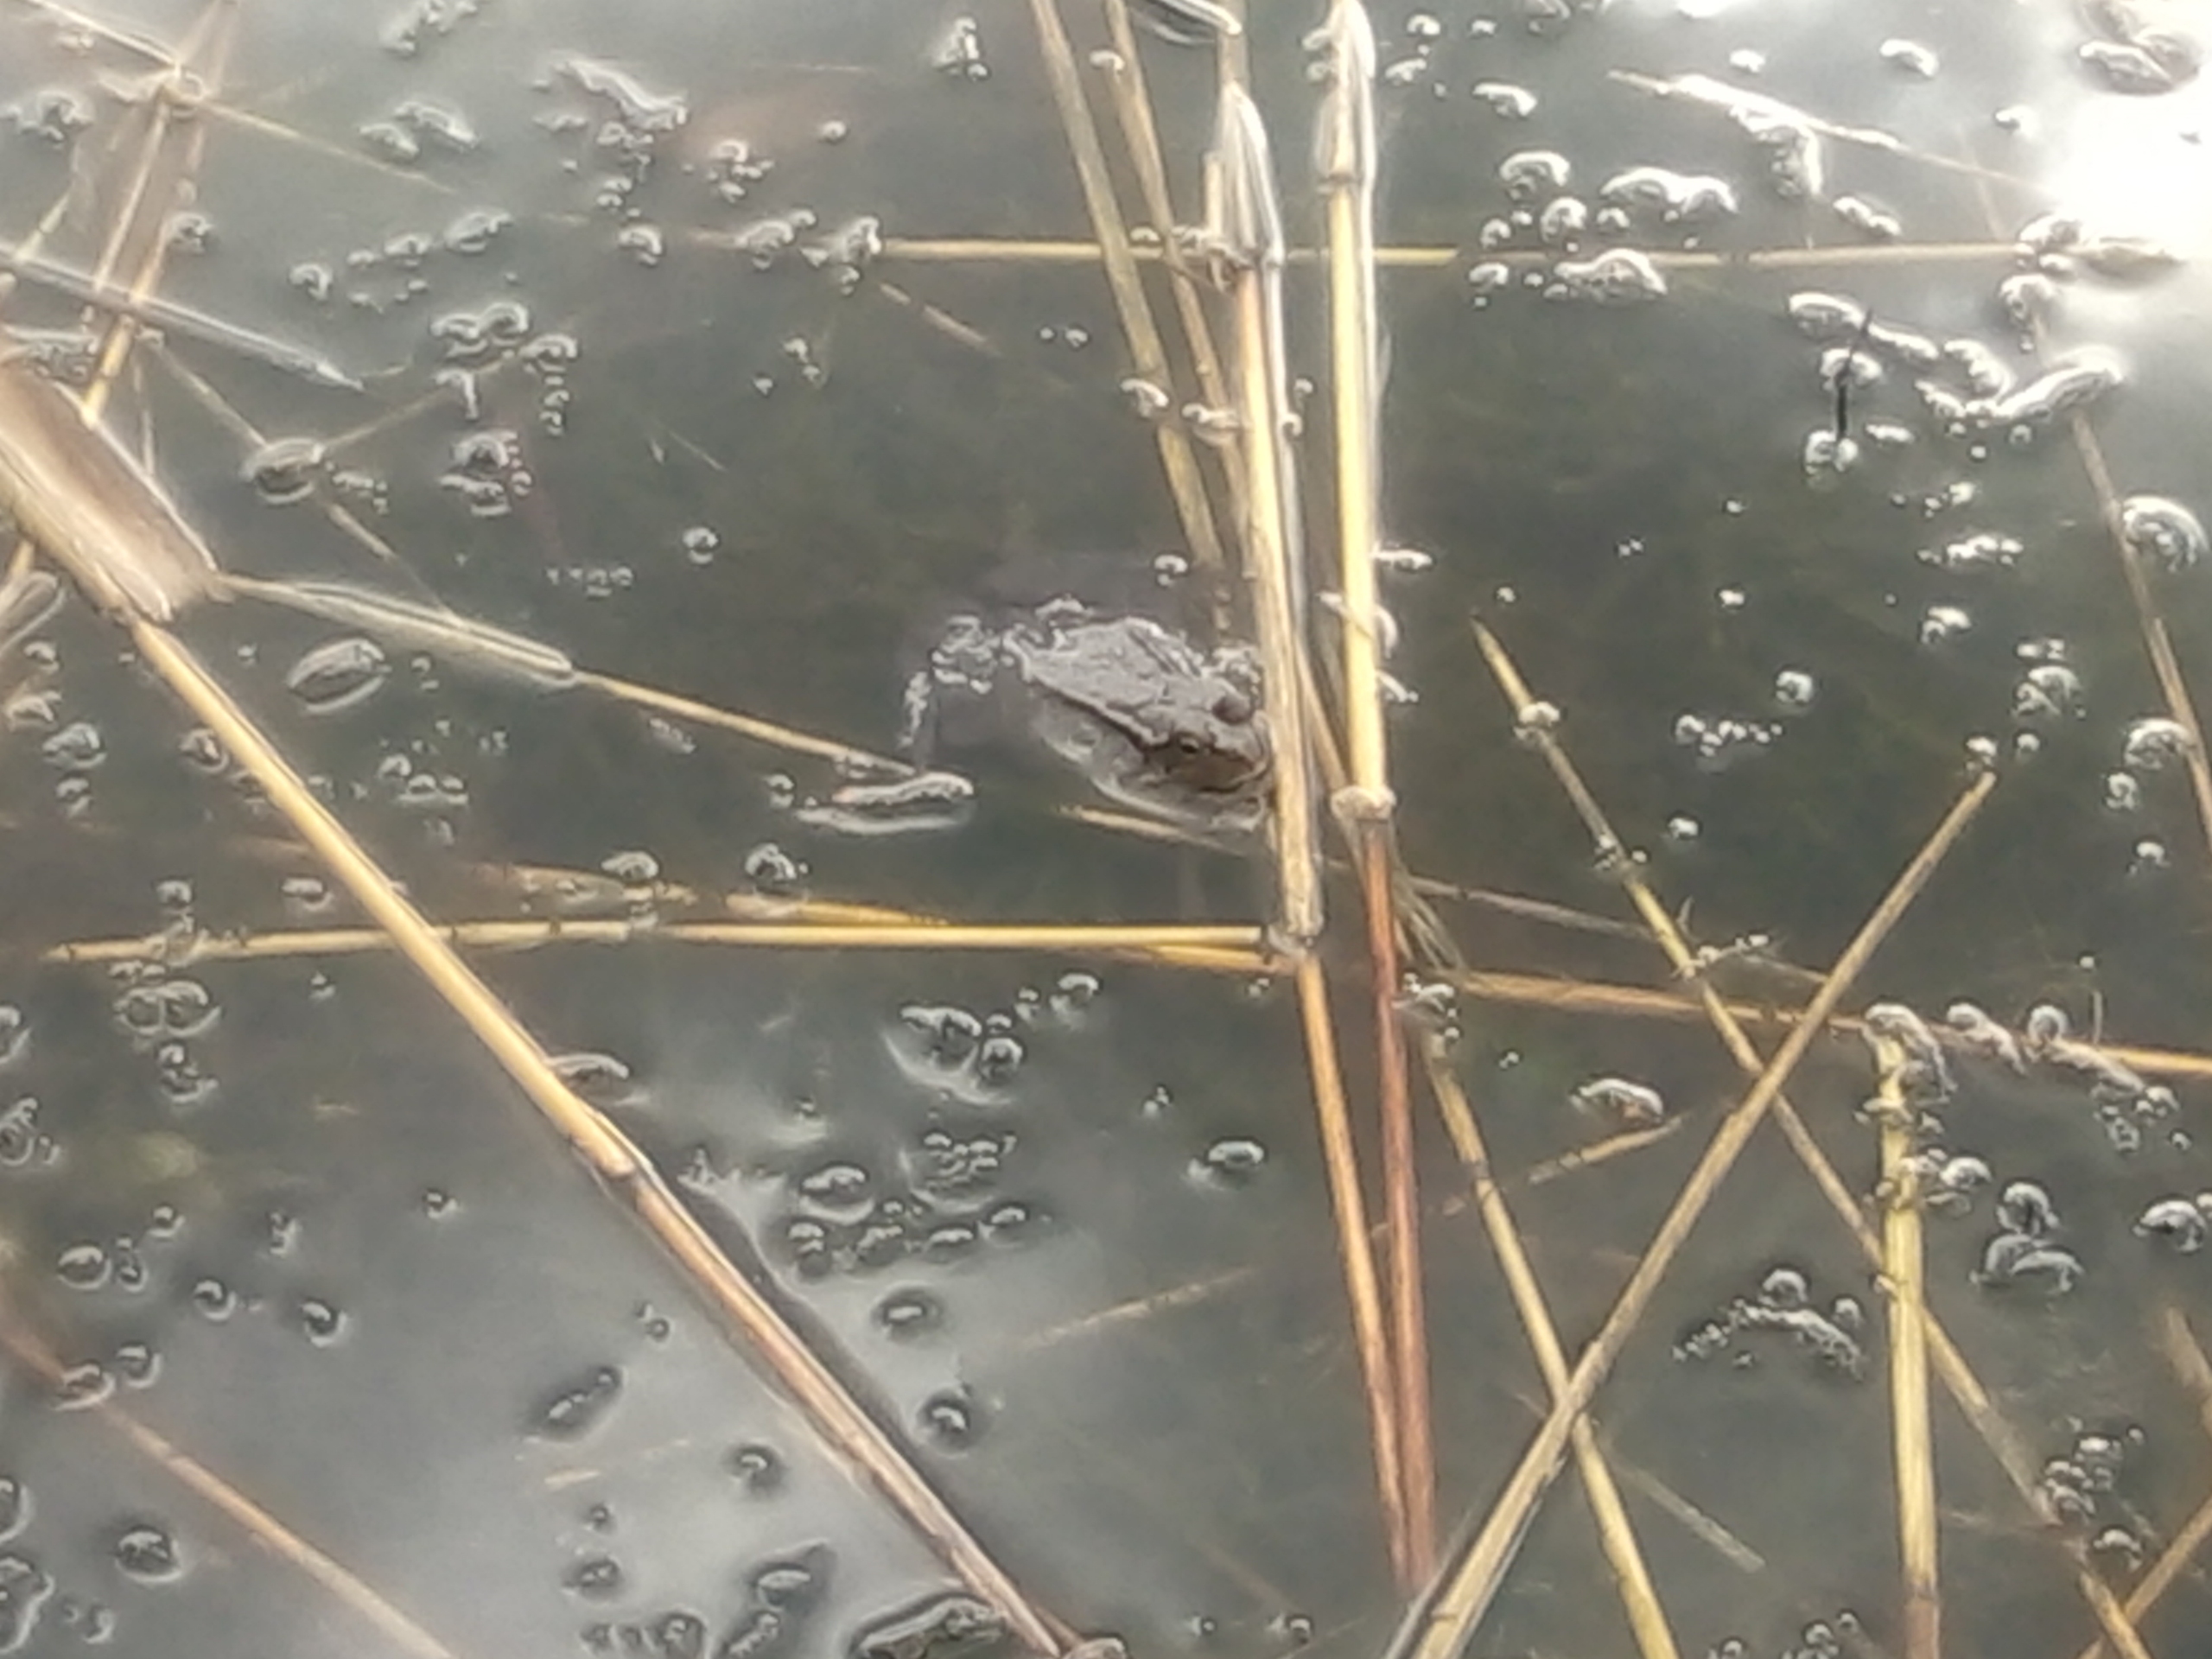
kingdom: Animalia
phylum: Chordata
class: Amphibia
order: Anura
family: Ranidae
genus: Rana
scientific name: Rana temporaria
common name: Butsnudet frø
